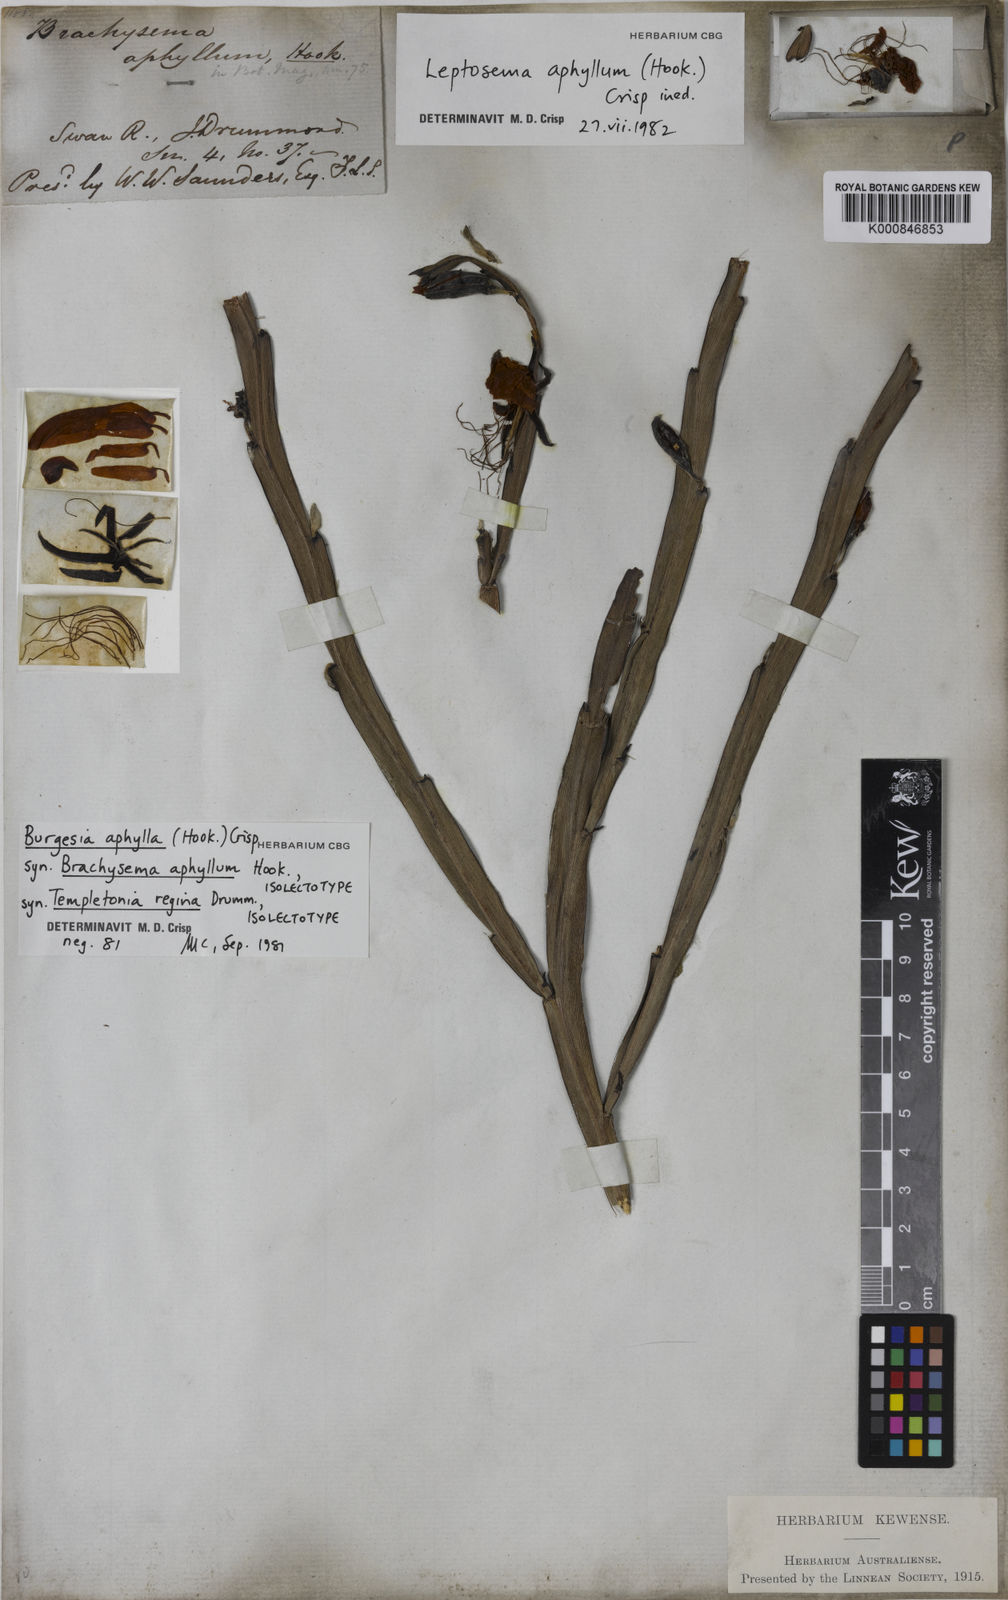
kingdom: Plantae
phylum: Tracheophyta
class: Magnoliopsida
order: Fabales
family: Fabaceae
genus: Leptosema
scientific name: Leptosema aphyllum
